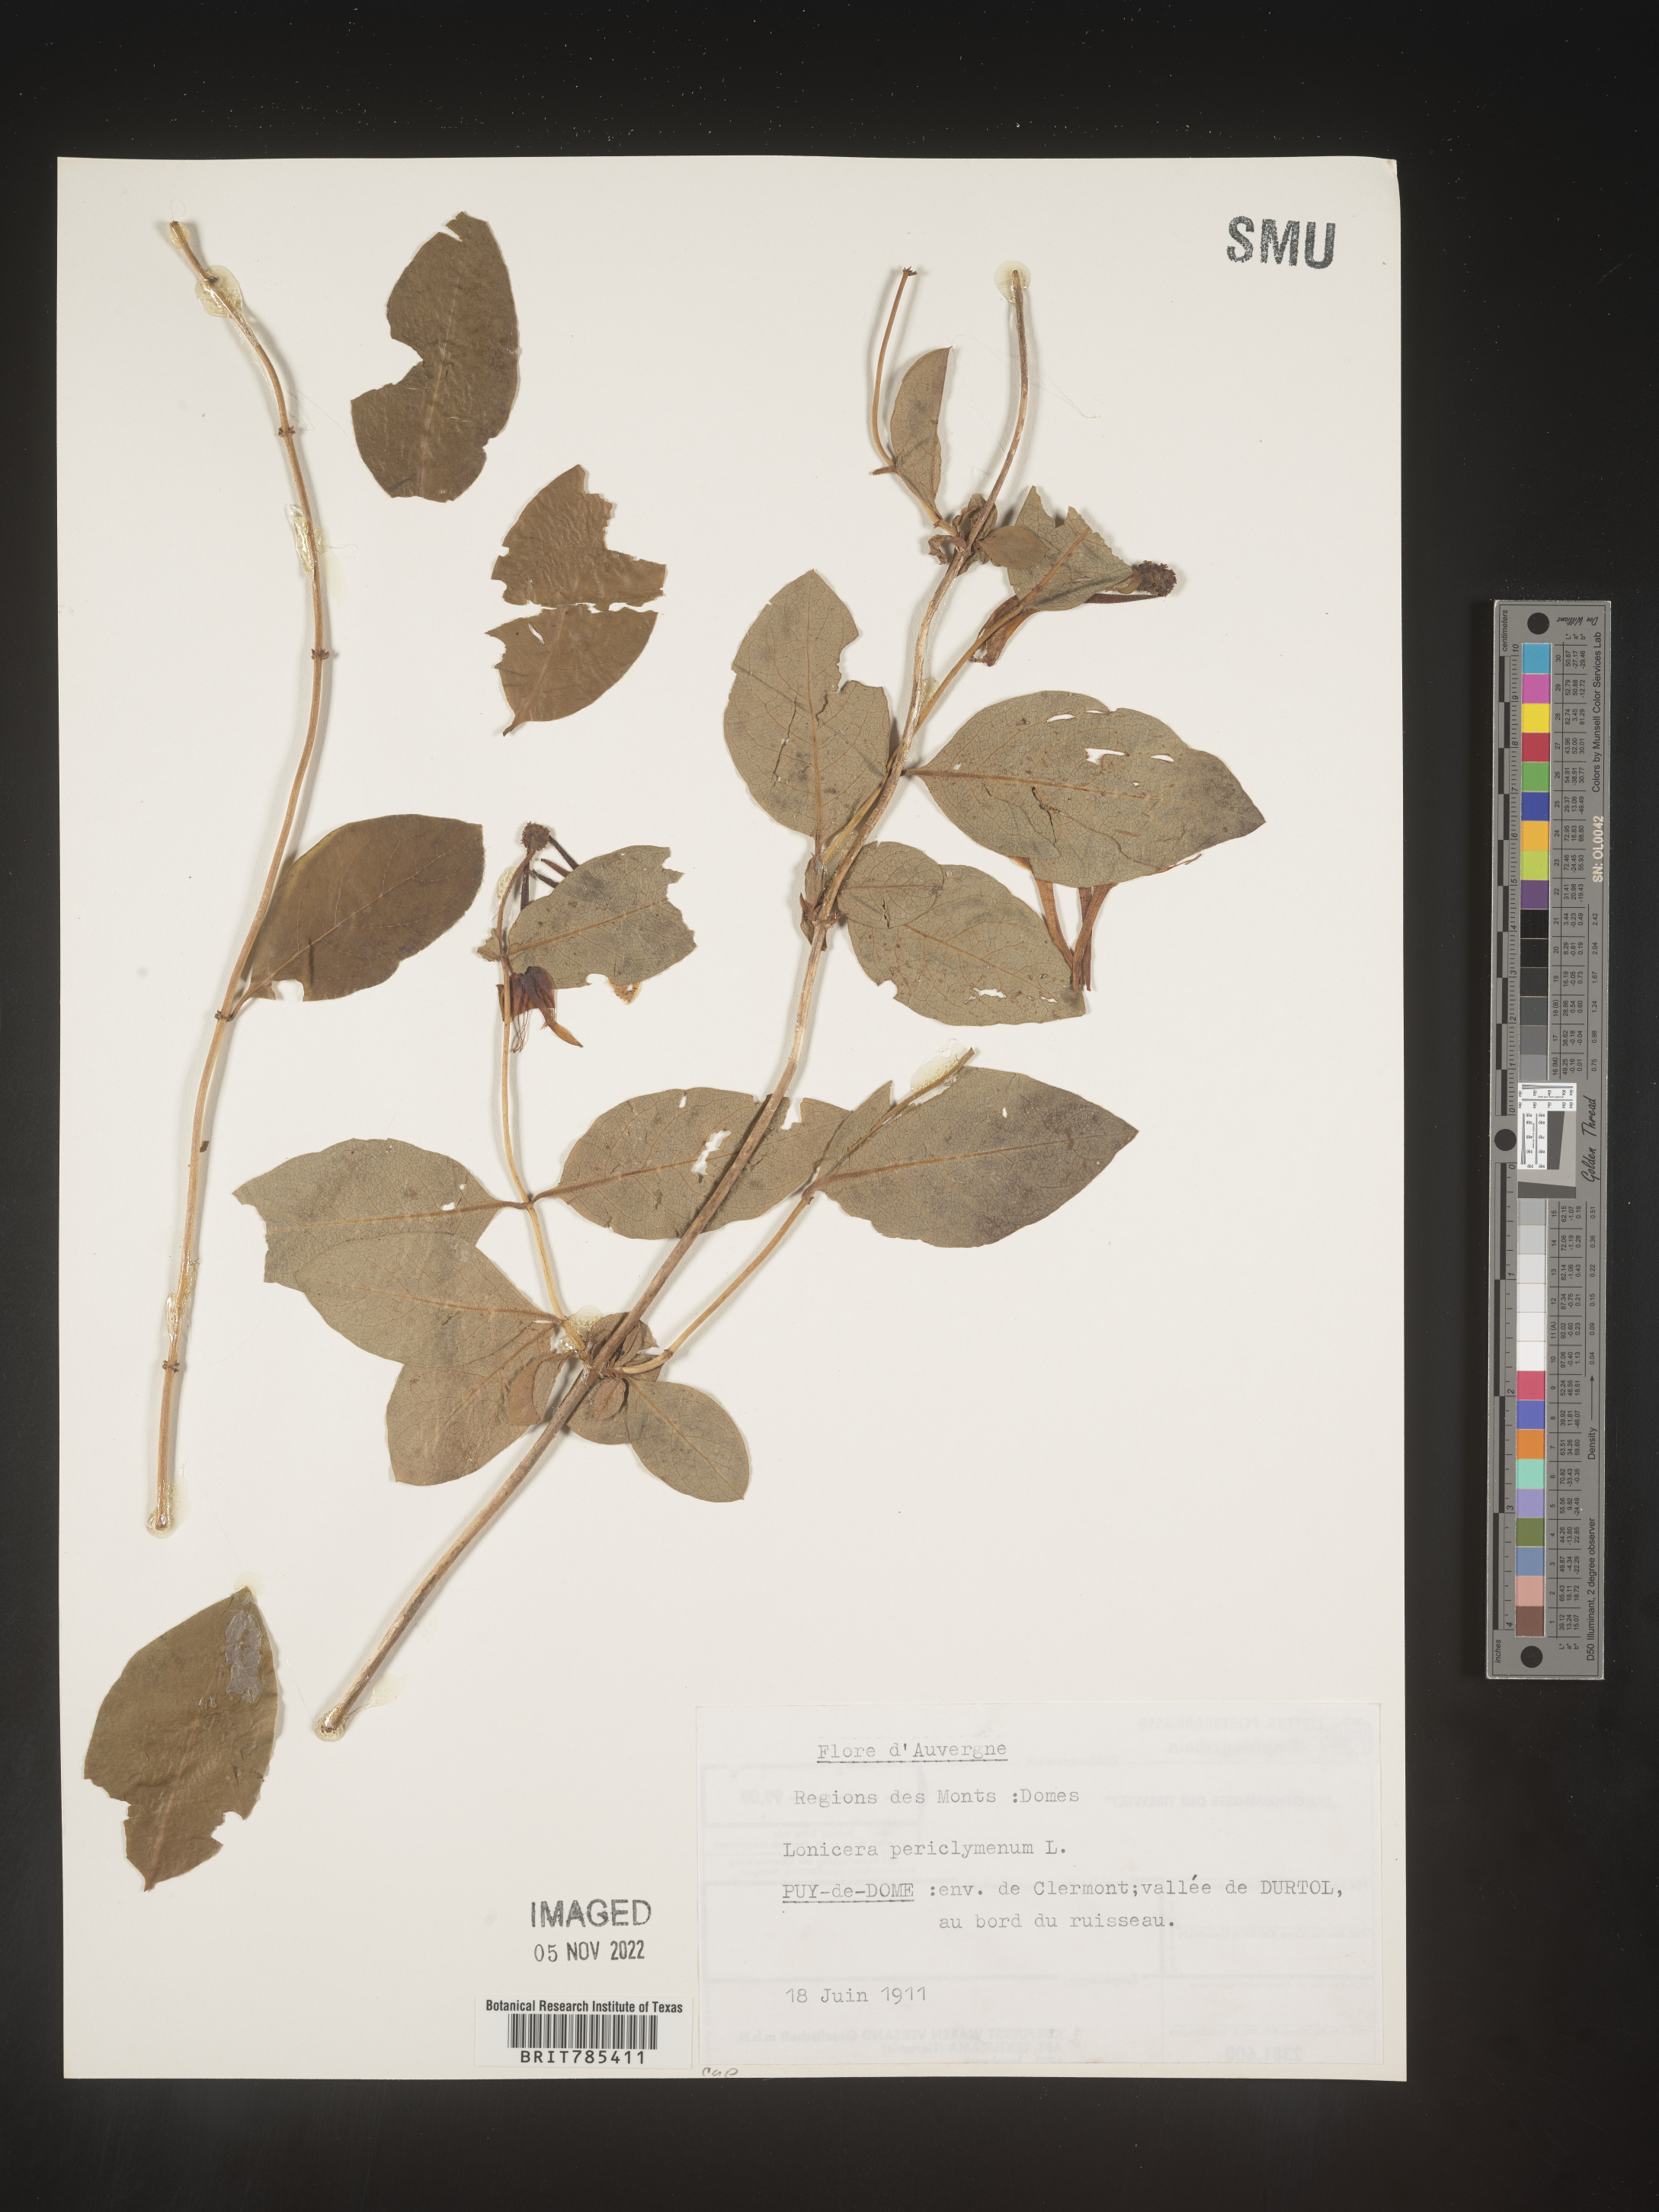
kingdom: Plantae
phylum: Tracheophyta
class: Magnoliopsida
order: Dipsacales
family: Caprifoliaceae
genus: Lonicera
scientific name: Lonicera
